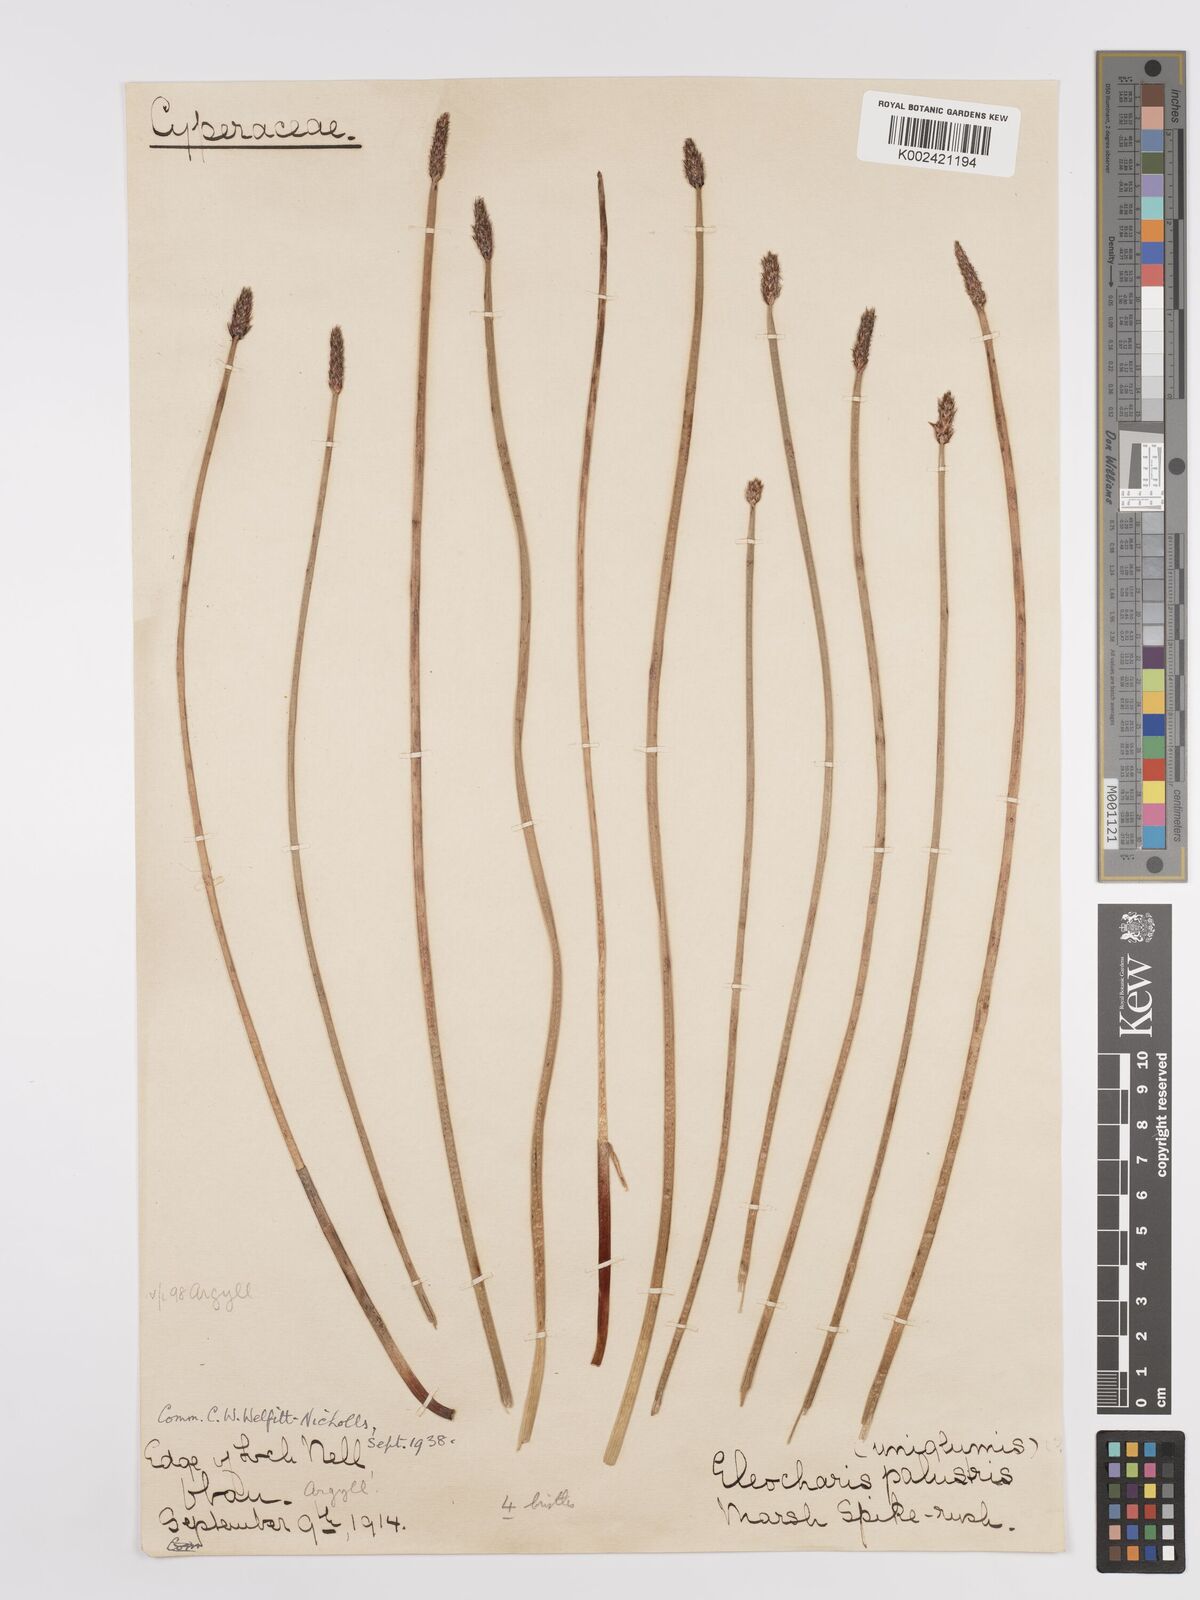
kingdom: Plantae
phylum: Tracheophyta
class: Liliopsida
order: Poales
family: Cyperaceae
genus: Eleocharis
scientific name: Eleocharis palustris
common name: Common spike-rush
